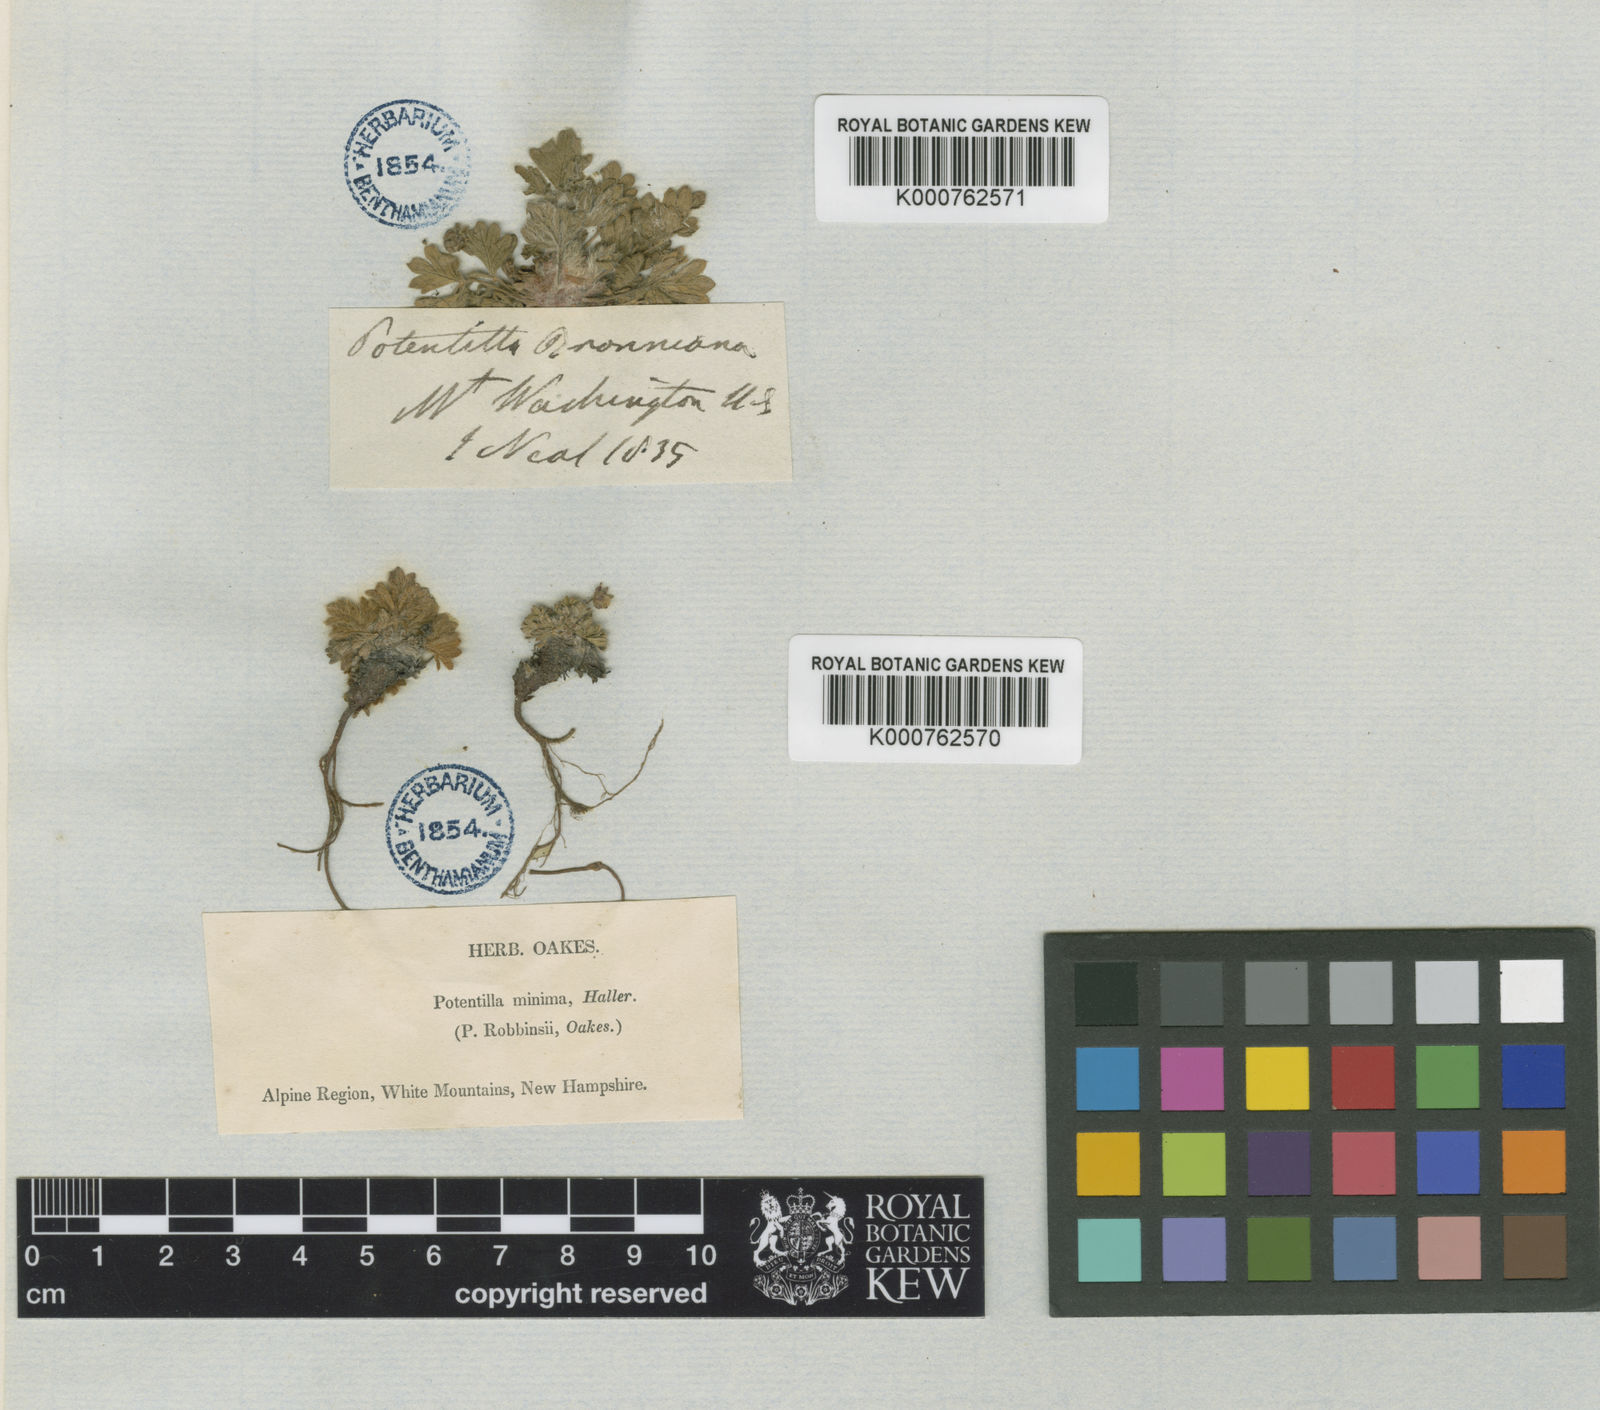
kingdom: Plantae
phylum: Tracheophyta
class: Magnoliopsida
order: Rosales
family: Rosaceae
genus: Potentilla
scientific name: Potentilla
